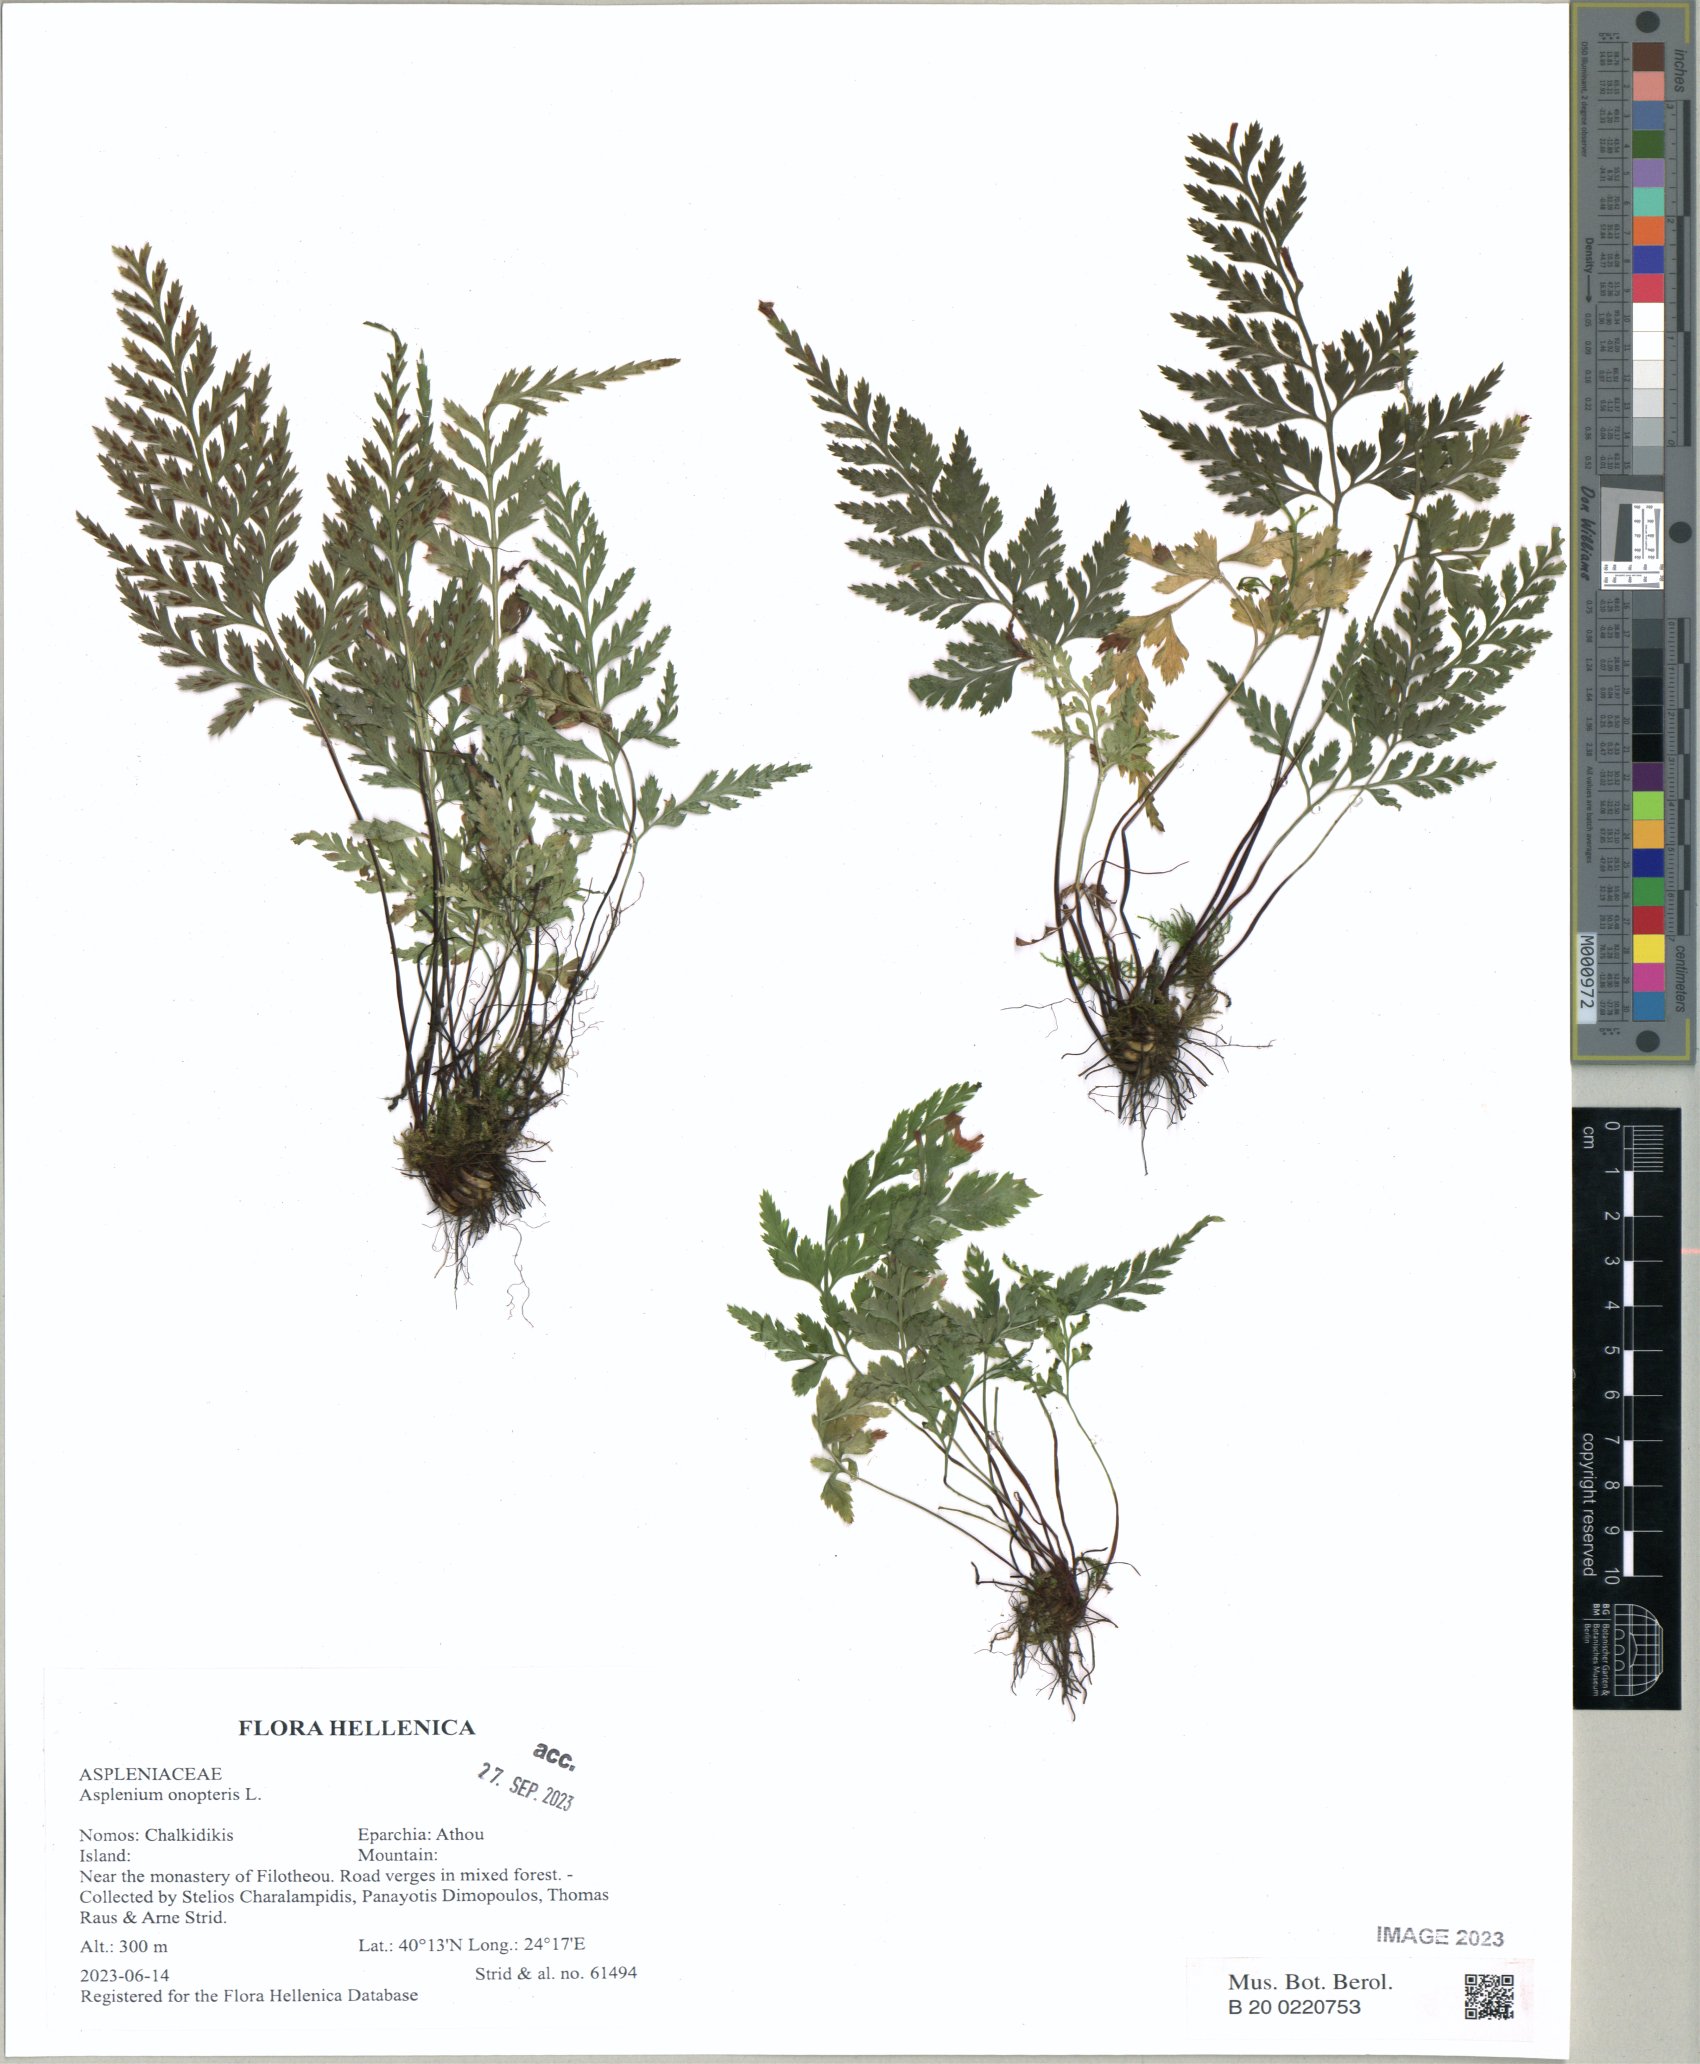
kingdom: Plantae
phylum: Tracheophyta
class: Polypodiopsida
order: Polypodiales
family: Aspleniaceae
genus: Asplenium
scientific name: Asplenium onopteris
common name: Irish spleenwort
